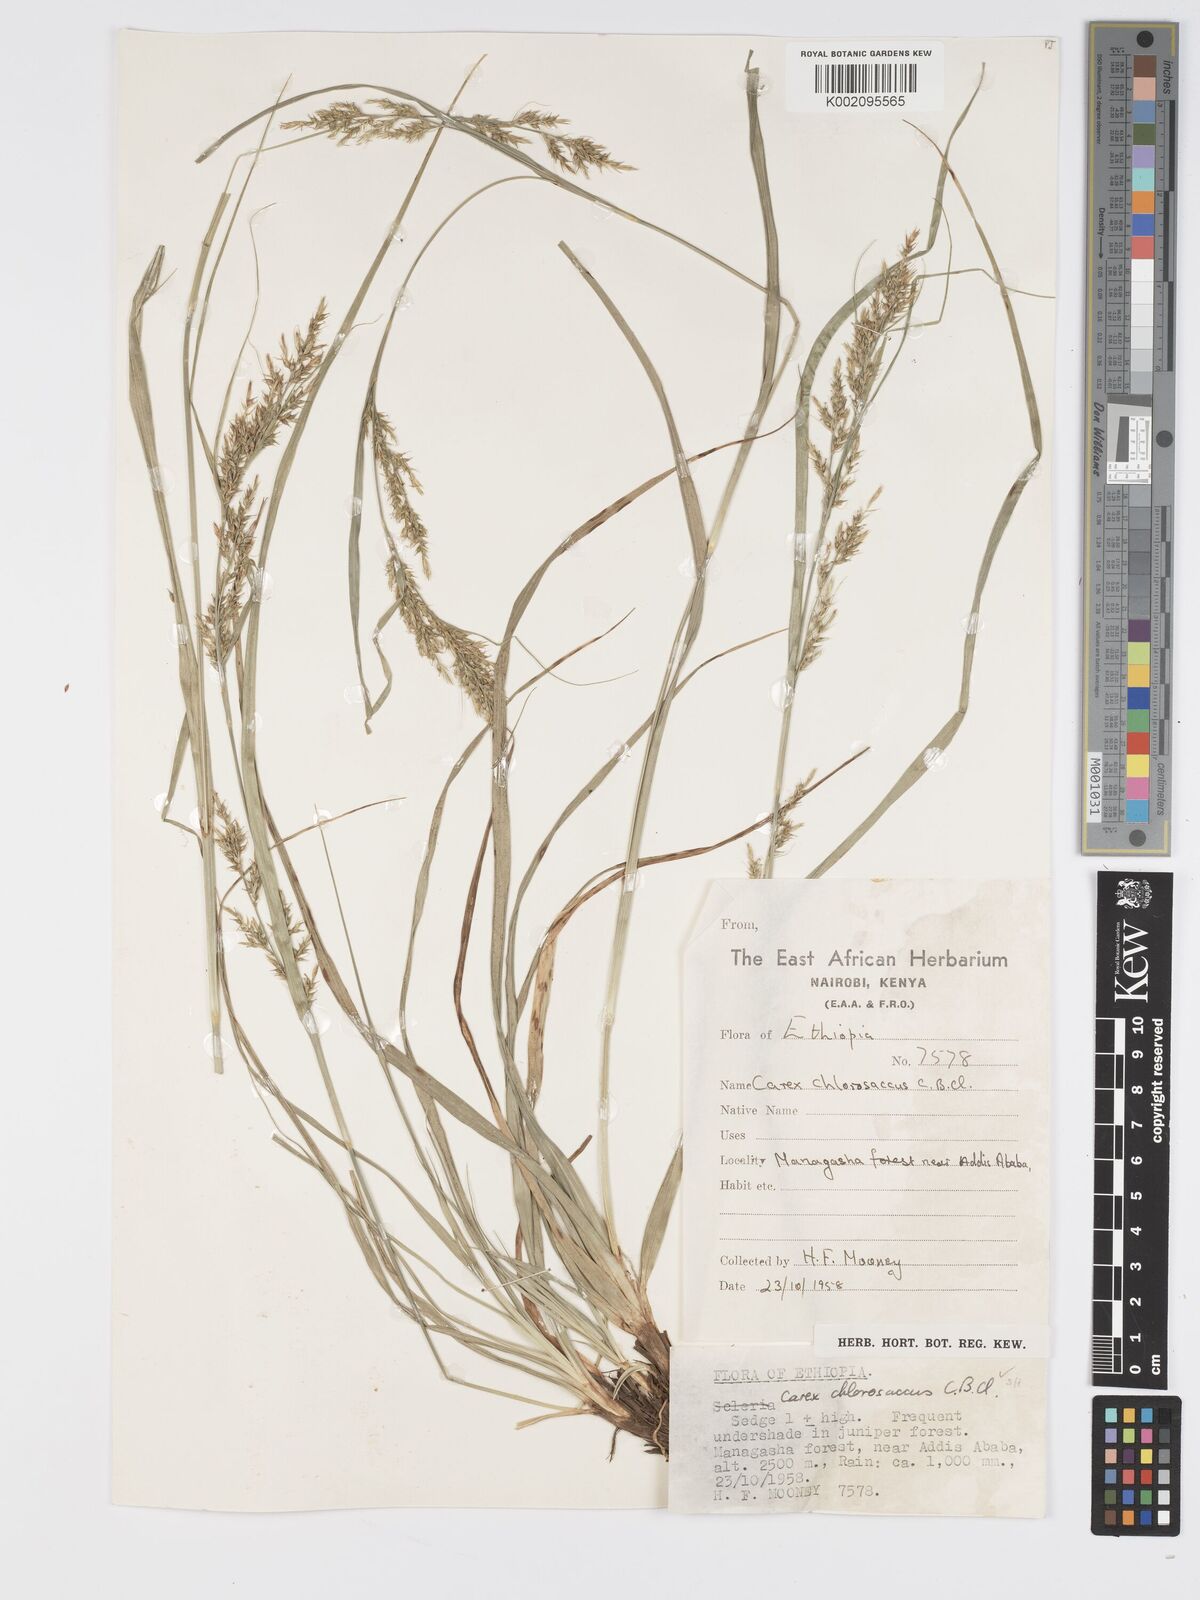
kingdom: Plantae
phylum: Tracheophyta
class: Liliopsida
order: Poales
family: Cyperaceae
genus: Carex
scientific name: Carex chlorosaccus
